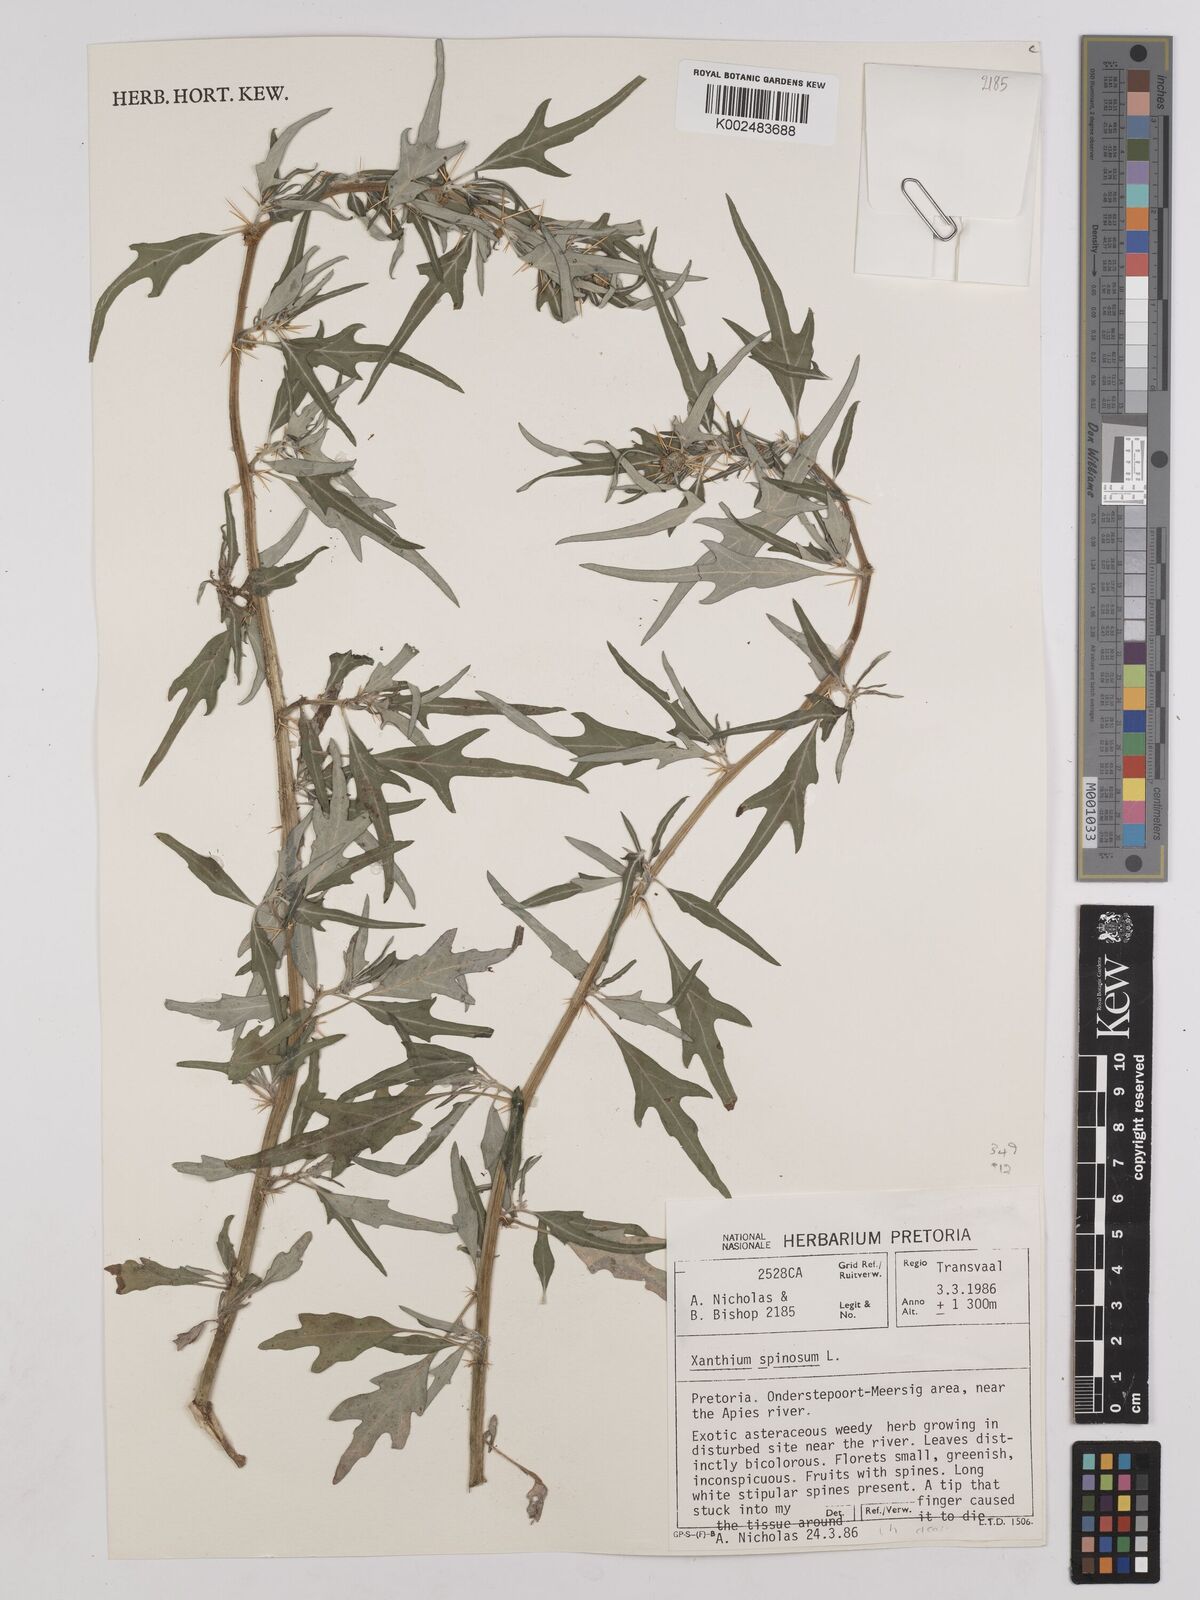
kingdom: Plantae
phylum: Tracheophyta
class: Magnoliopsida
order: Asterales
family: Asteraceae
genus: Xanthium
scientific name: Xanthium spinosum
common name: Spiny cocklebur
